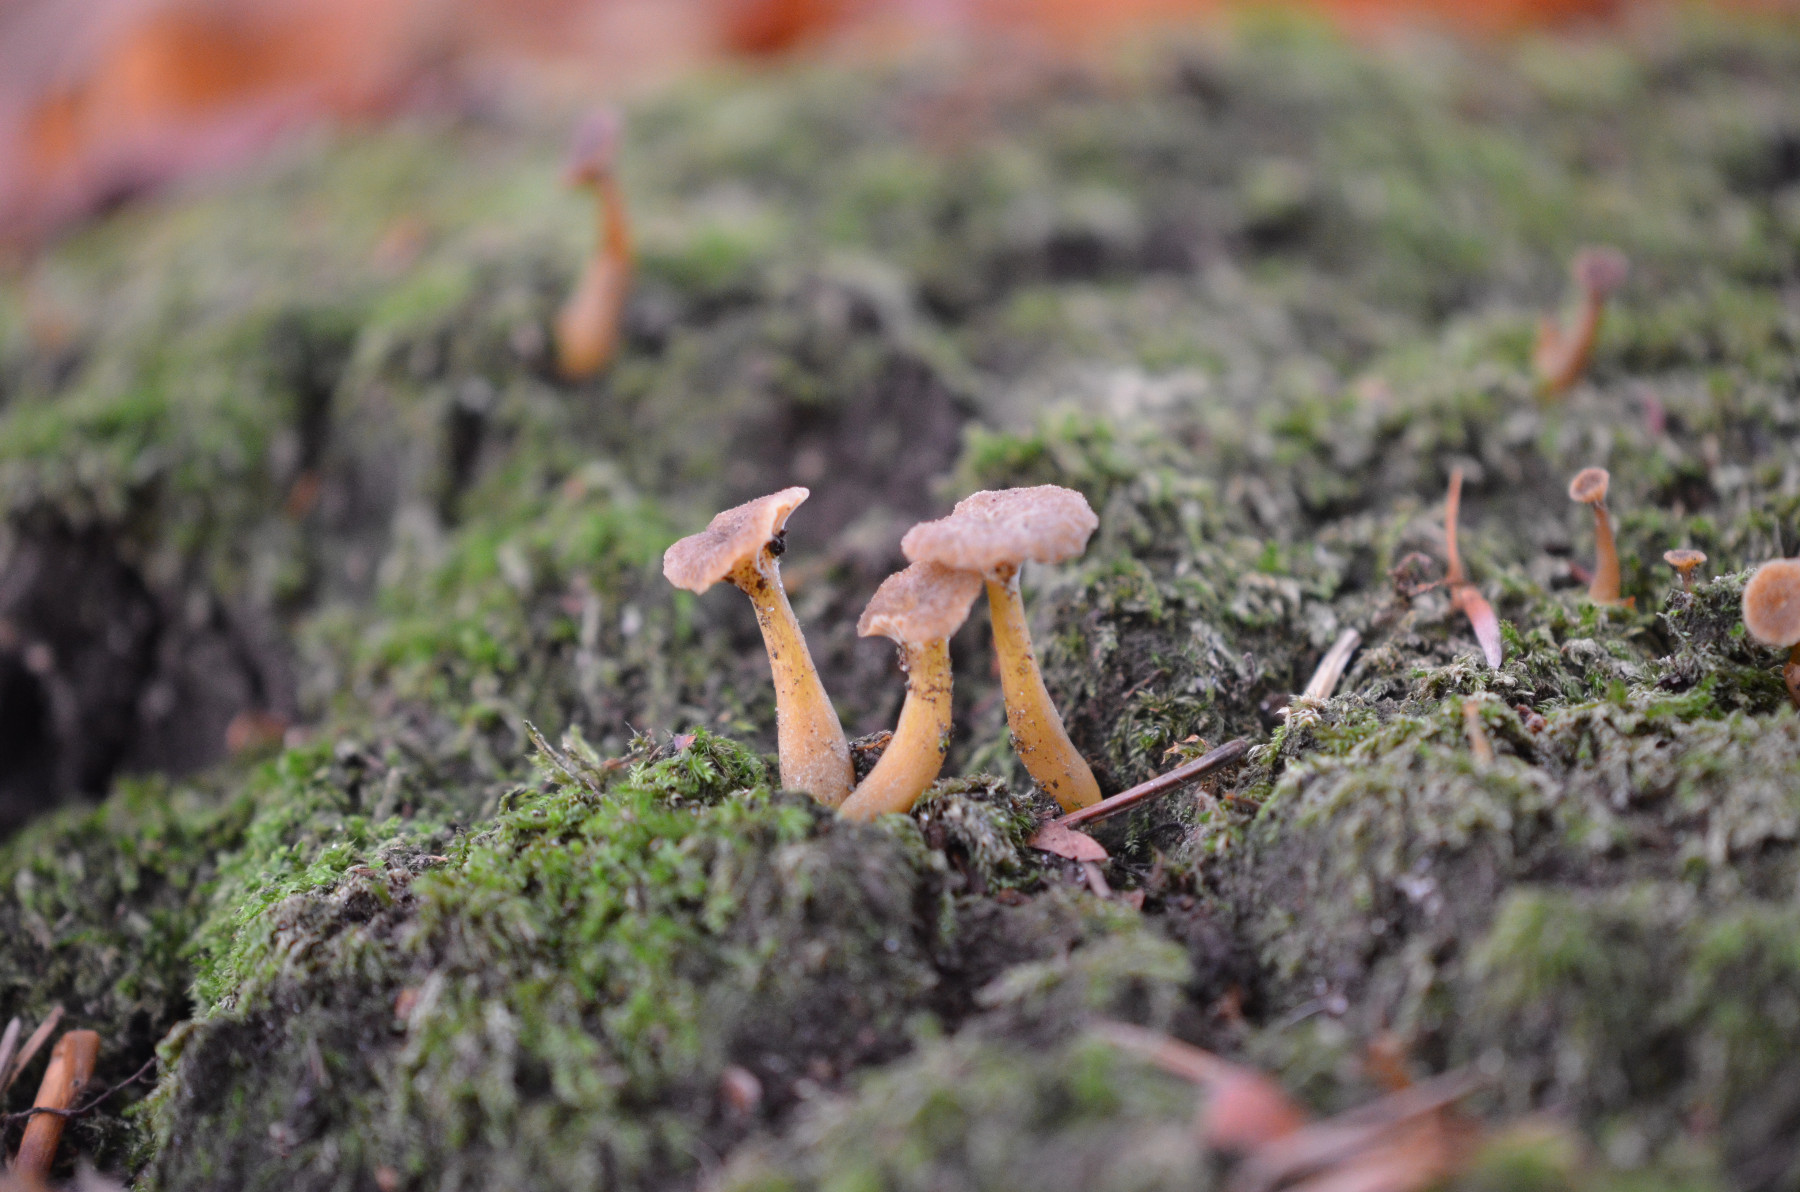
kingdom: Fungi
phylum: Basidiomycota
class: Agaricomycetes
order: Cantharellales
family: Hydnaceae
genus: Craterellus
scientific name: Craterellus tubaeformis
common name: tragt-kantarel
